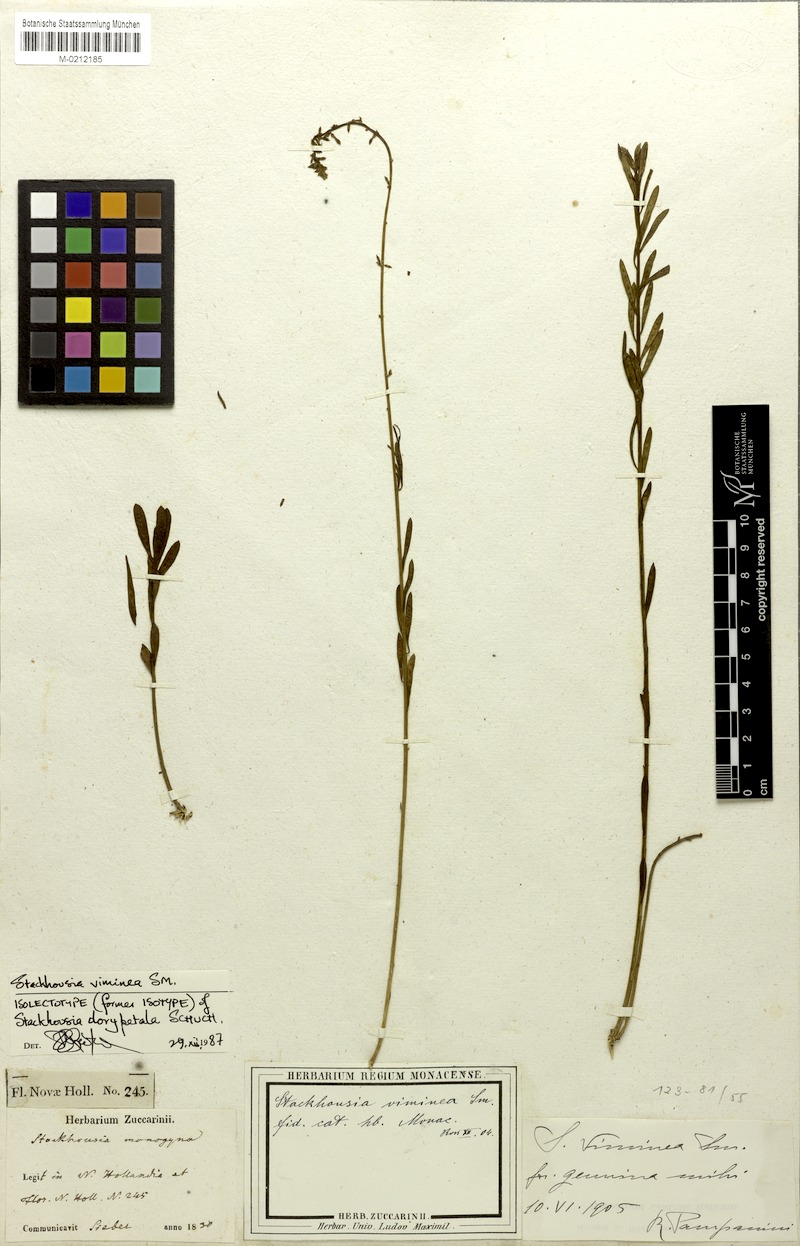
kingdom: Plantae
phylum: Tracheophyta
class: Magnoliopsida
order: Celastrales
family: Celastraceae
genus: Stackhousia
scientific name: Stackhousia viminea
